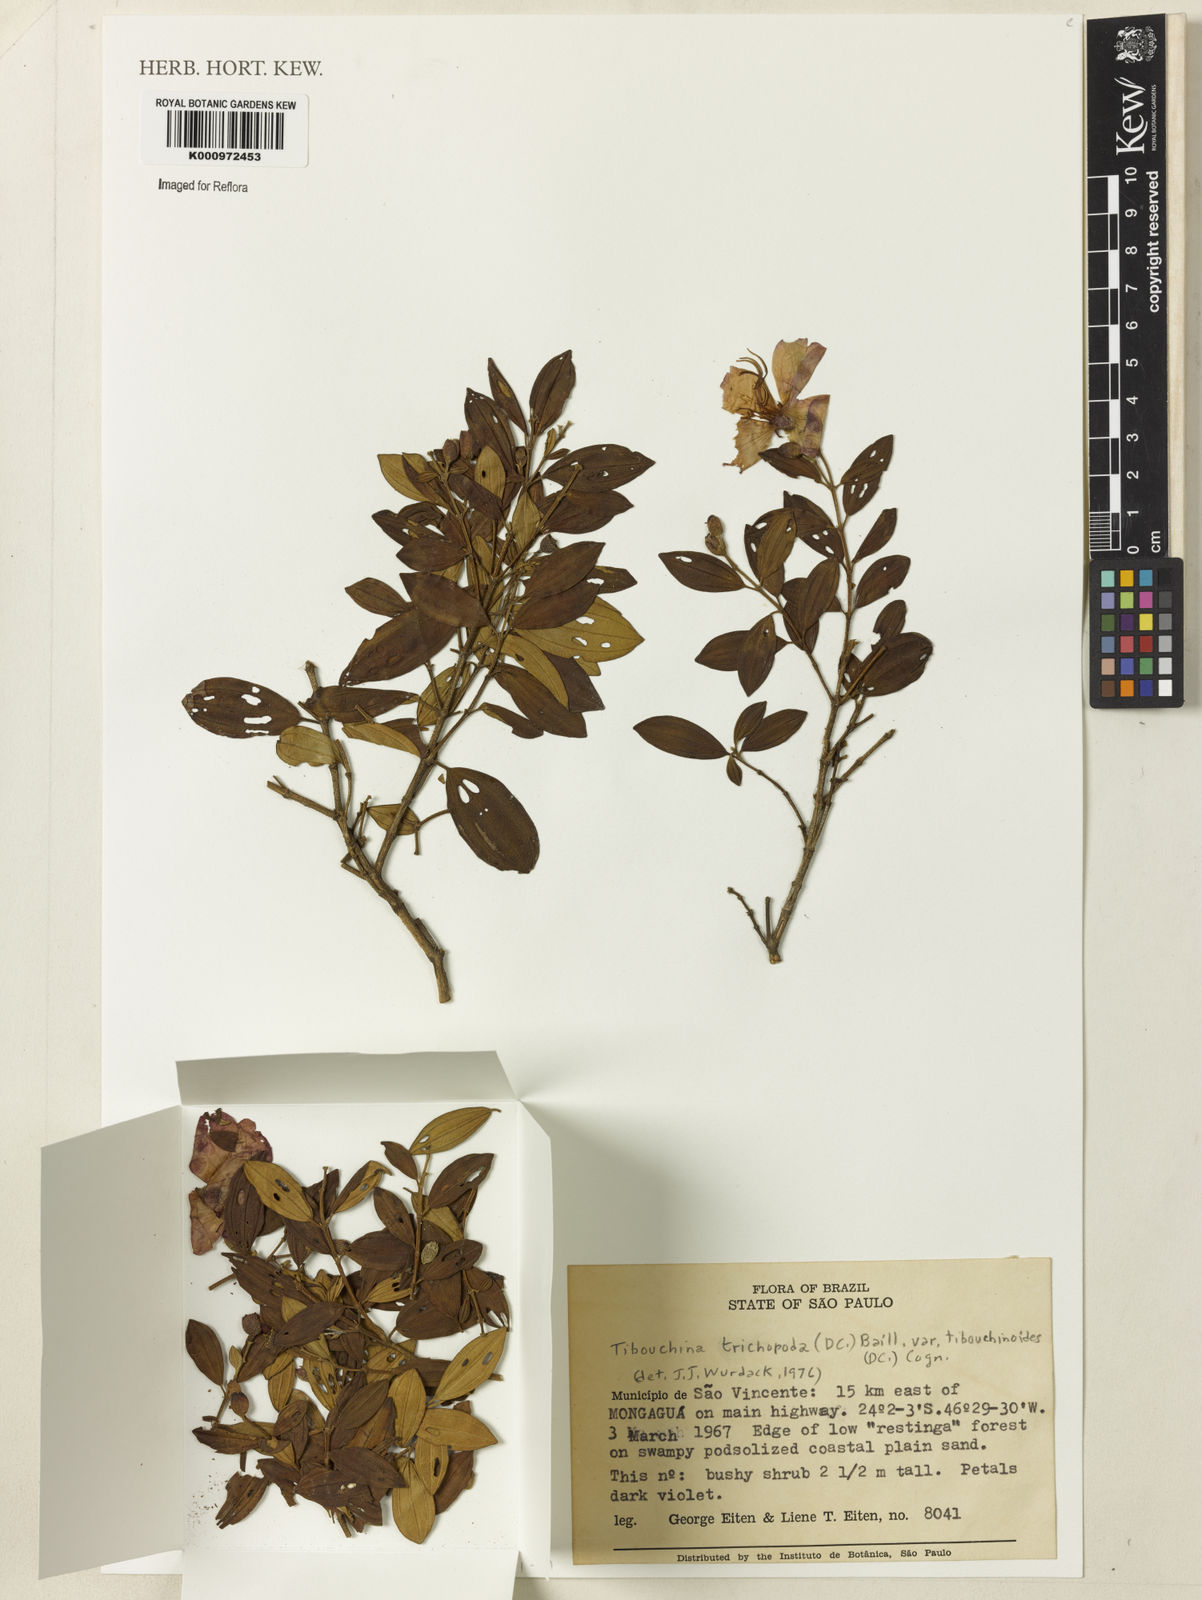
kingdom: Plantae
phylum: Tracheophyta
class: Magnoliopsida
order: Myrtales
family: Melastomataceae
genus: Pleroma
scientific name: Pleroma trichopodum
